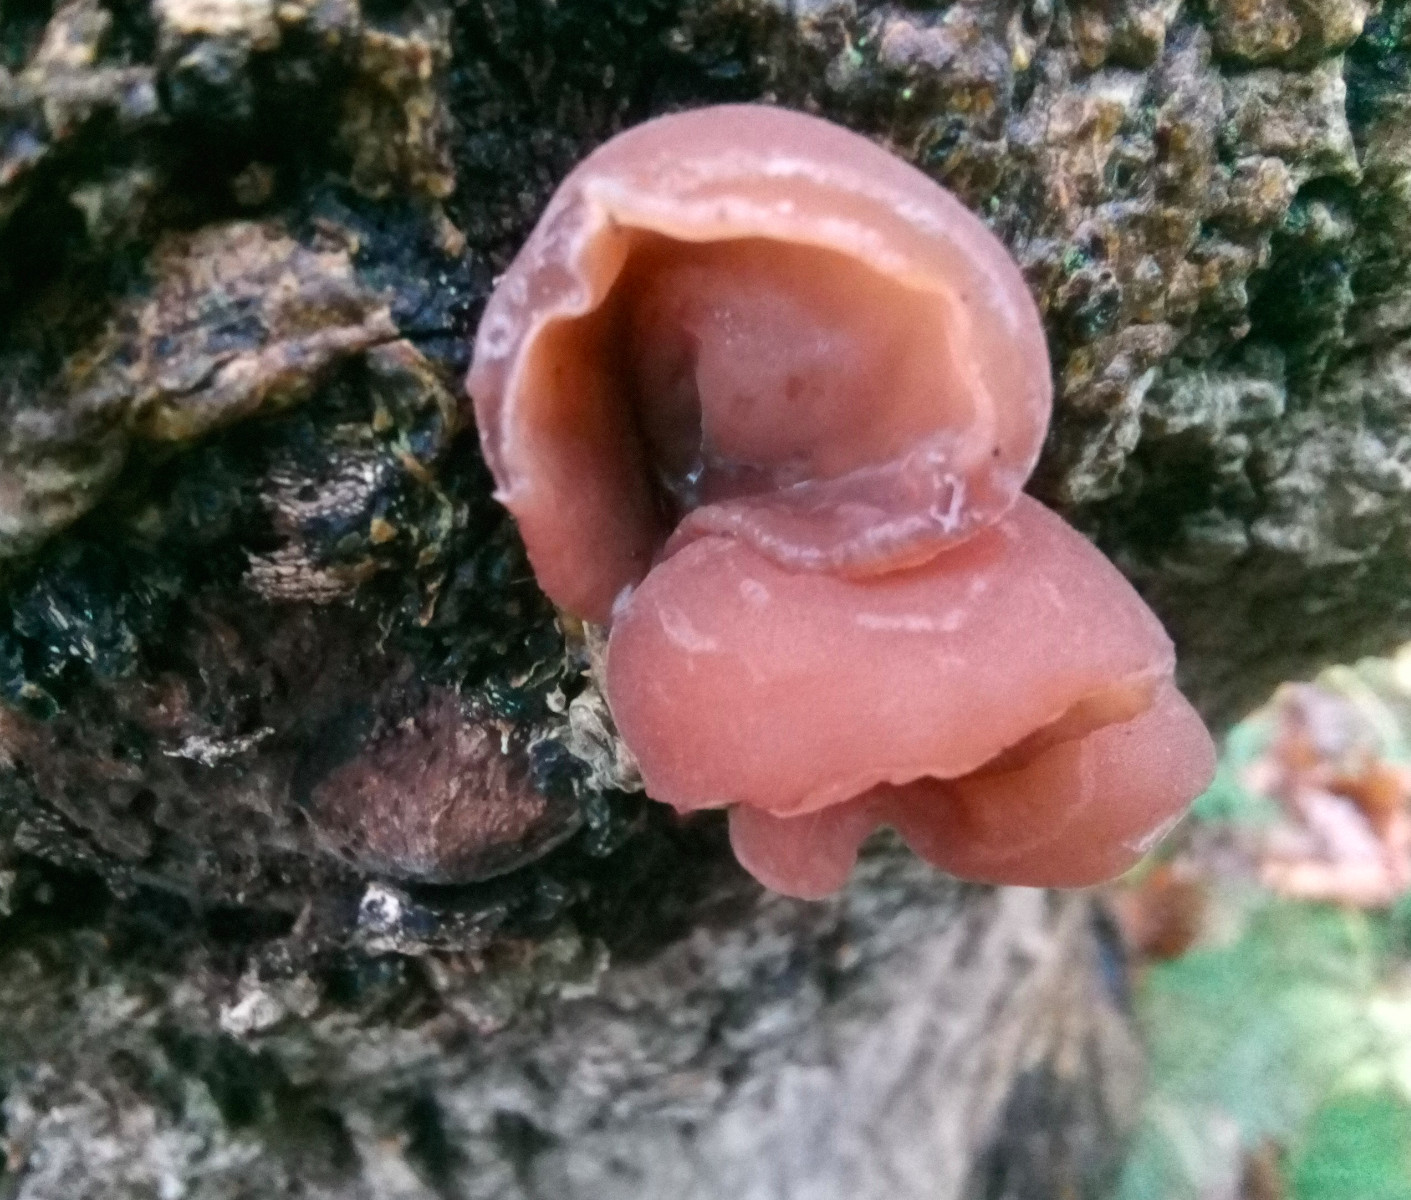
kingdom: Fungi
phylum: Basidiomycota
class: Agaricomycetes
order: Auriculariales
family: Auriculariaceae
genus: Auricularia
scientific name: Auricularia auricula-judae
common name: almindelig judasøre
